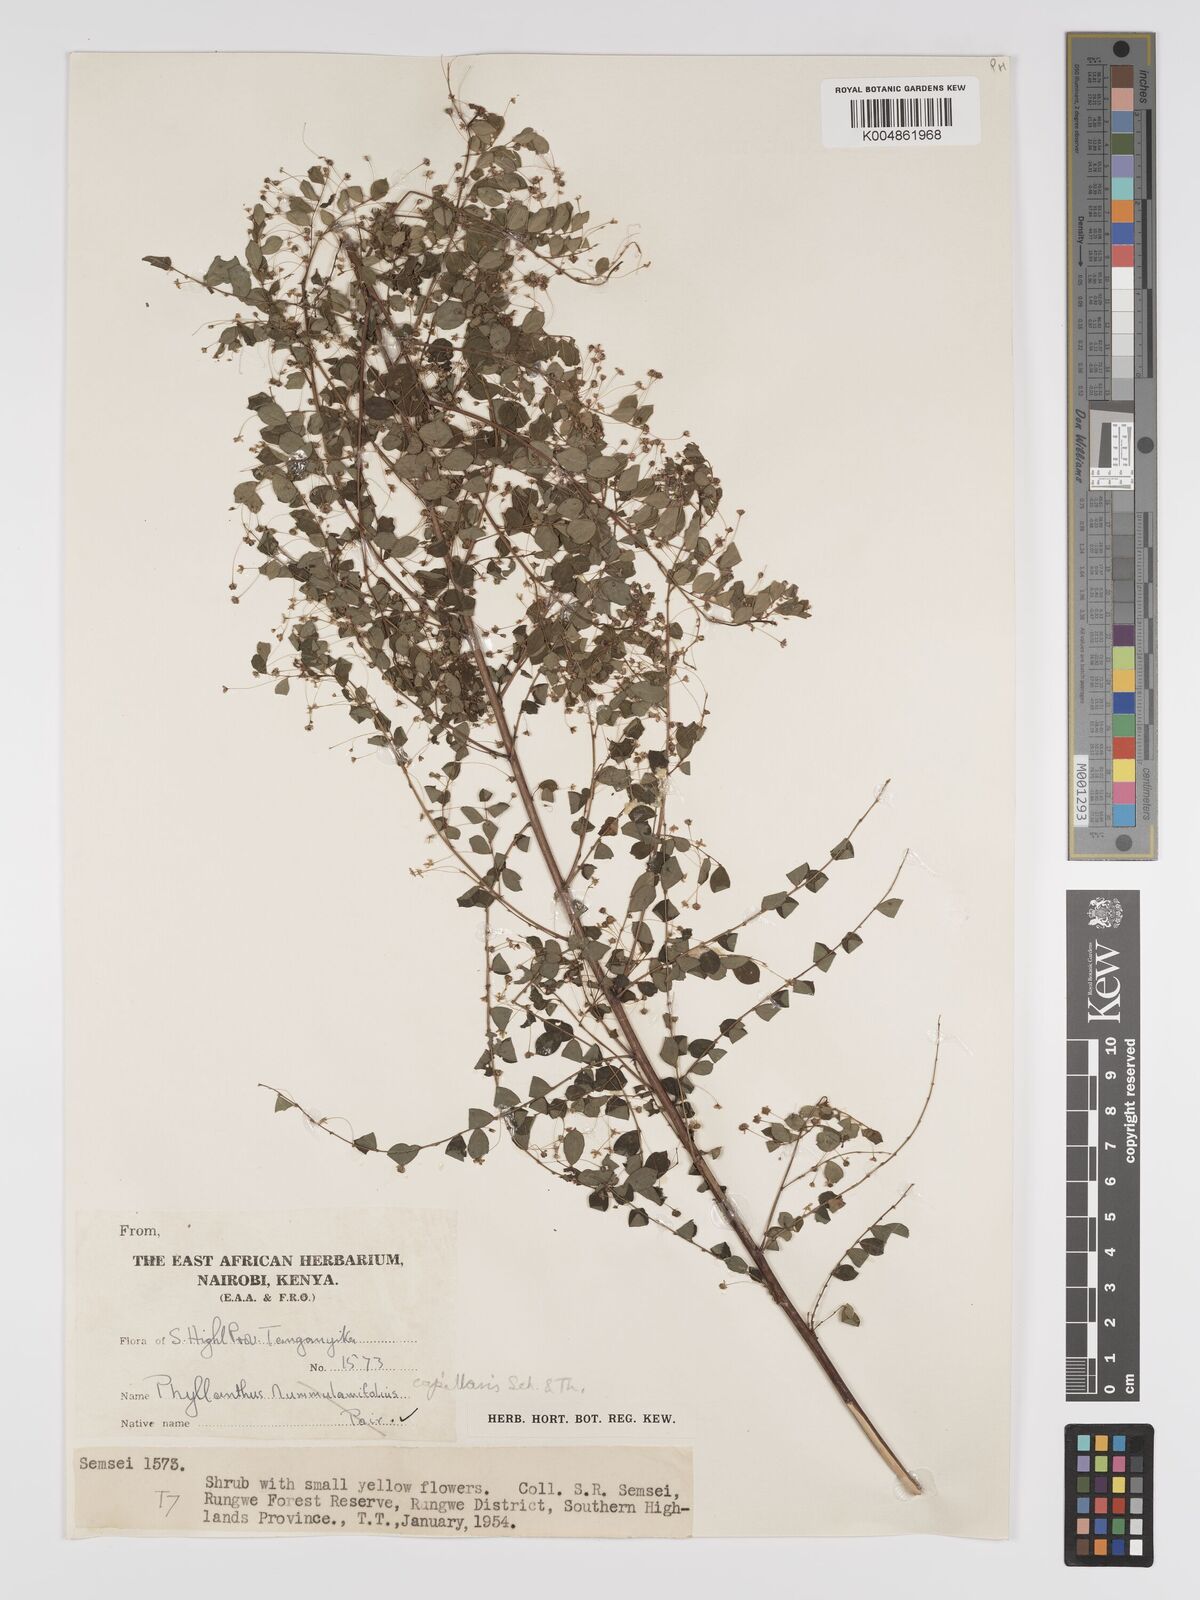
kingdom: Plantae
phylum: Tracheophyta
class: Magnoliopsida
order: Malpighiales
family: Phyllanthaceae
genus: Phyllanthus
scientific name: Phyllanthus nummulariifolius
